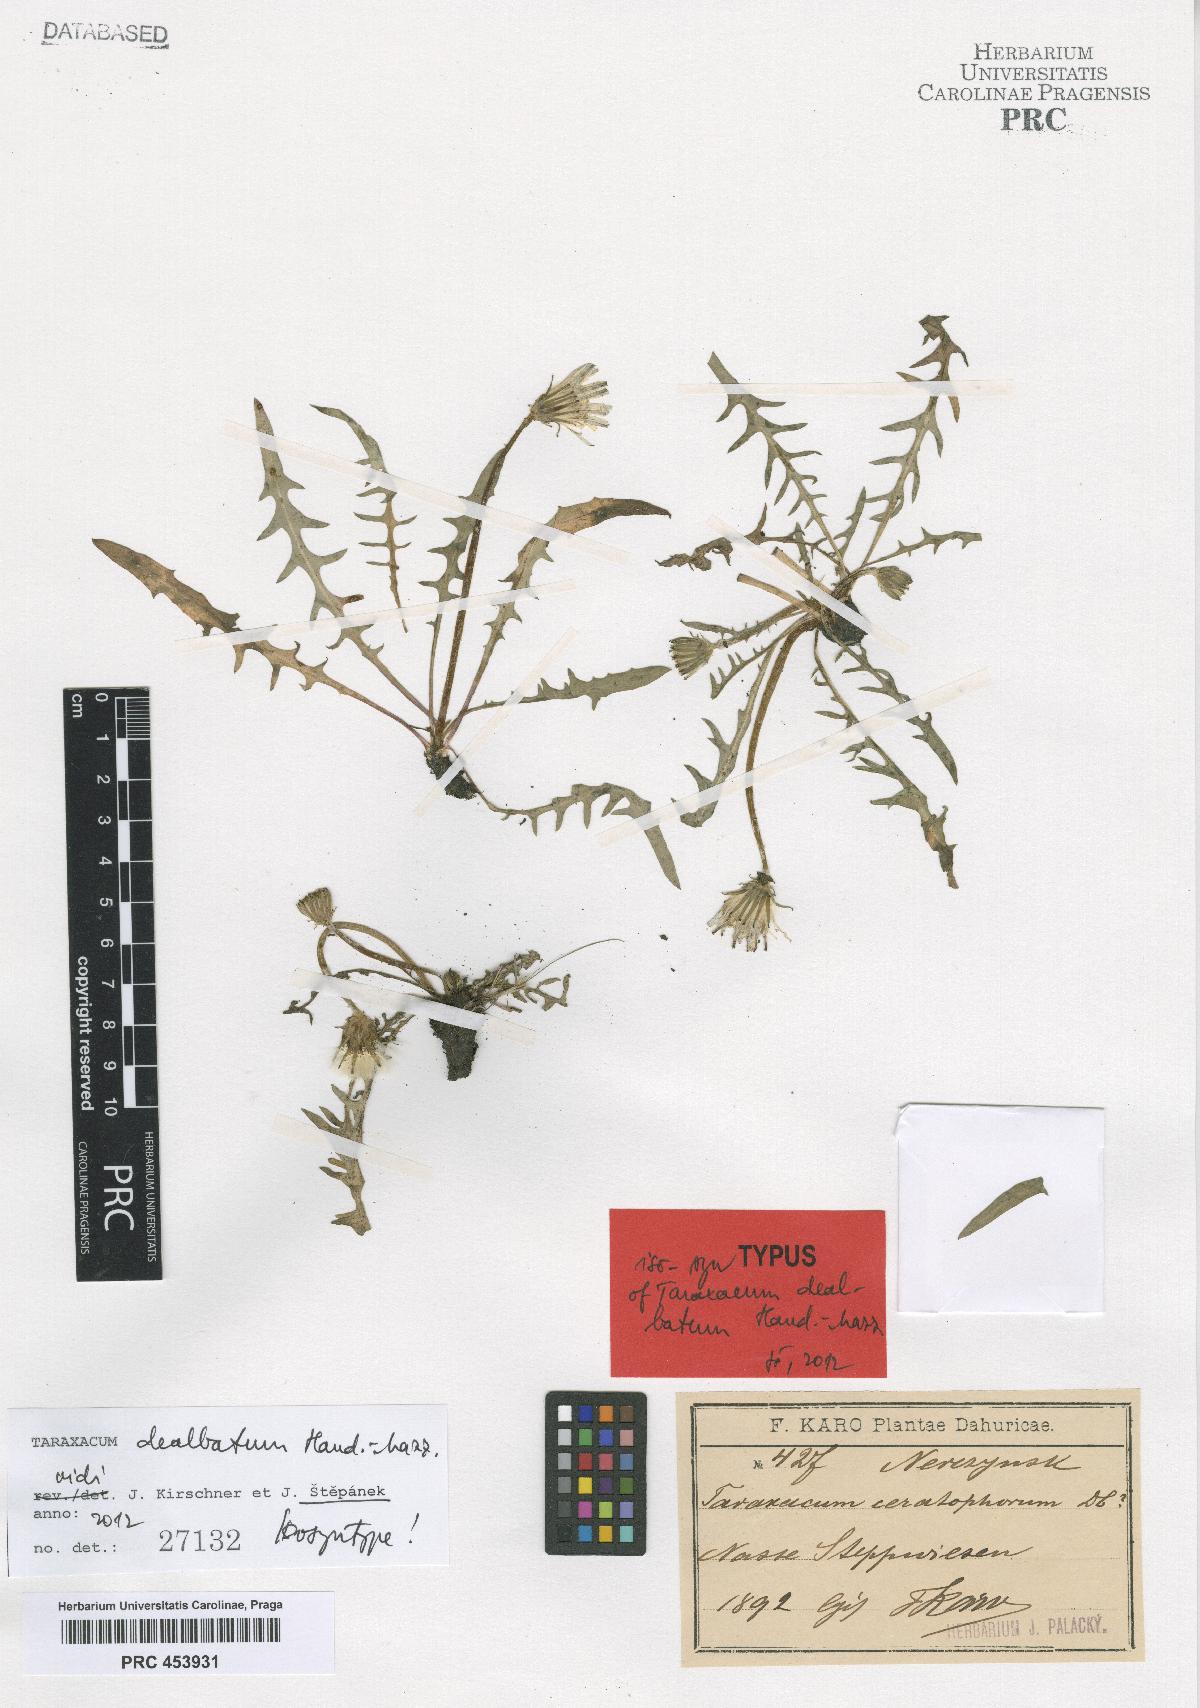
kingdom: Plantae
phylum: Tracheophyta
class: Magnoliopsida
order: Asterales
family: Asteraceae
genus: Taraxacum
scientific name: Taraxacum dealbatum
